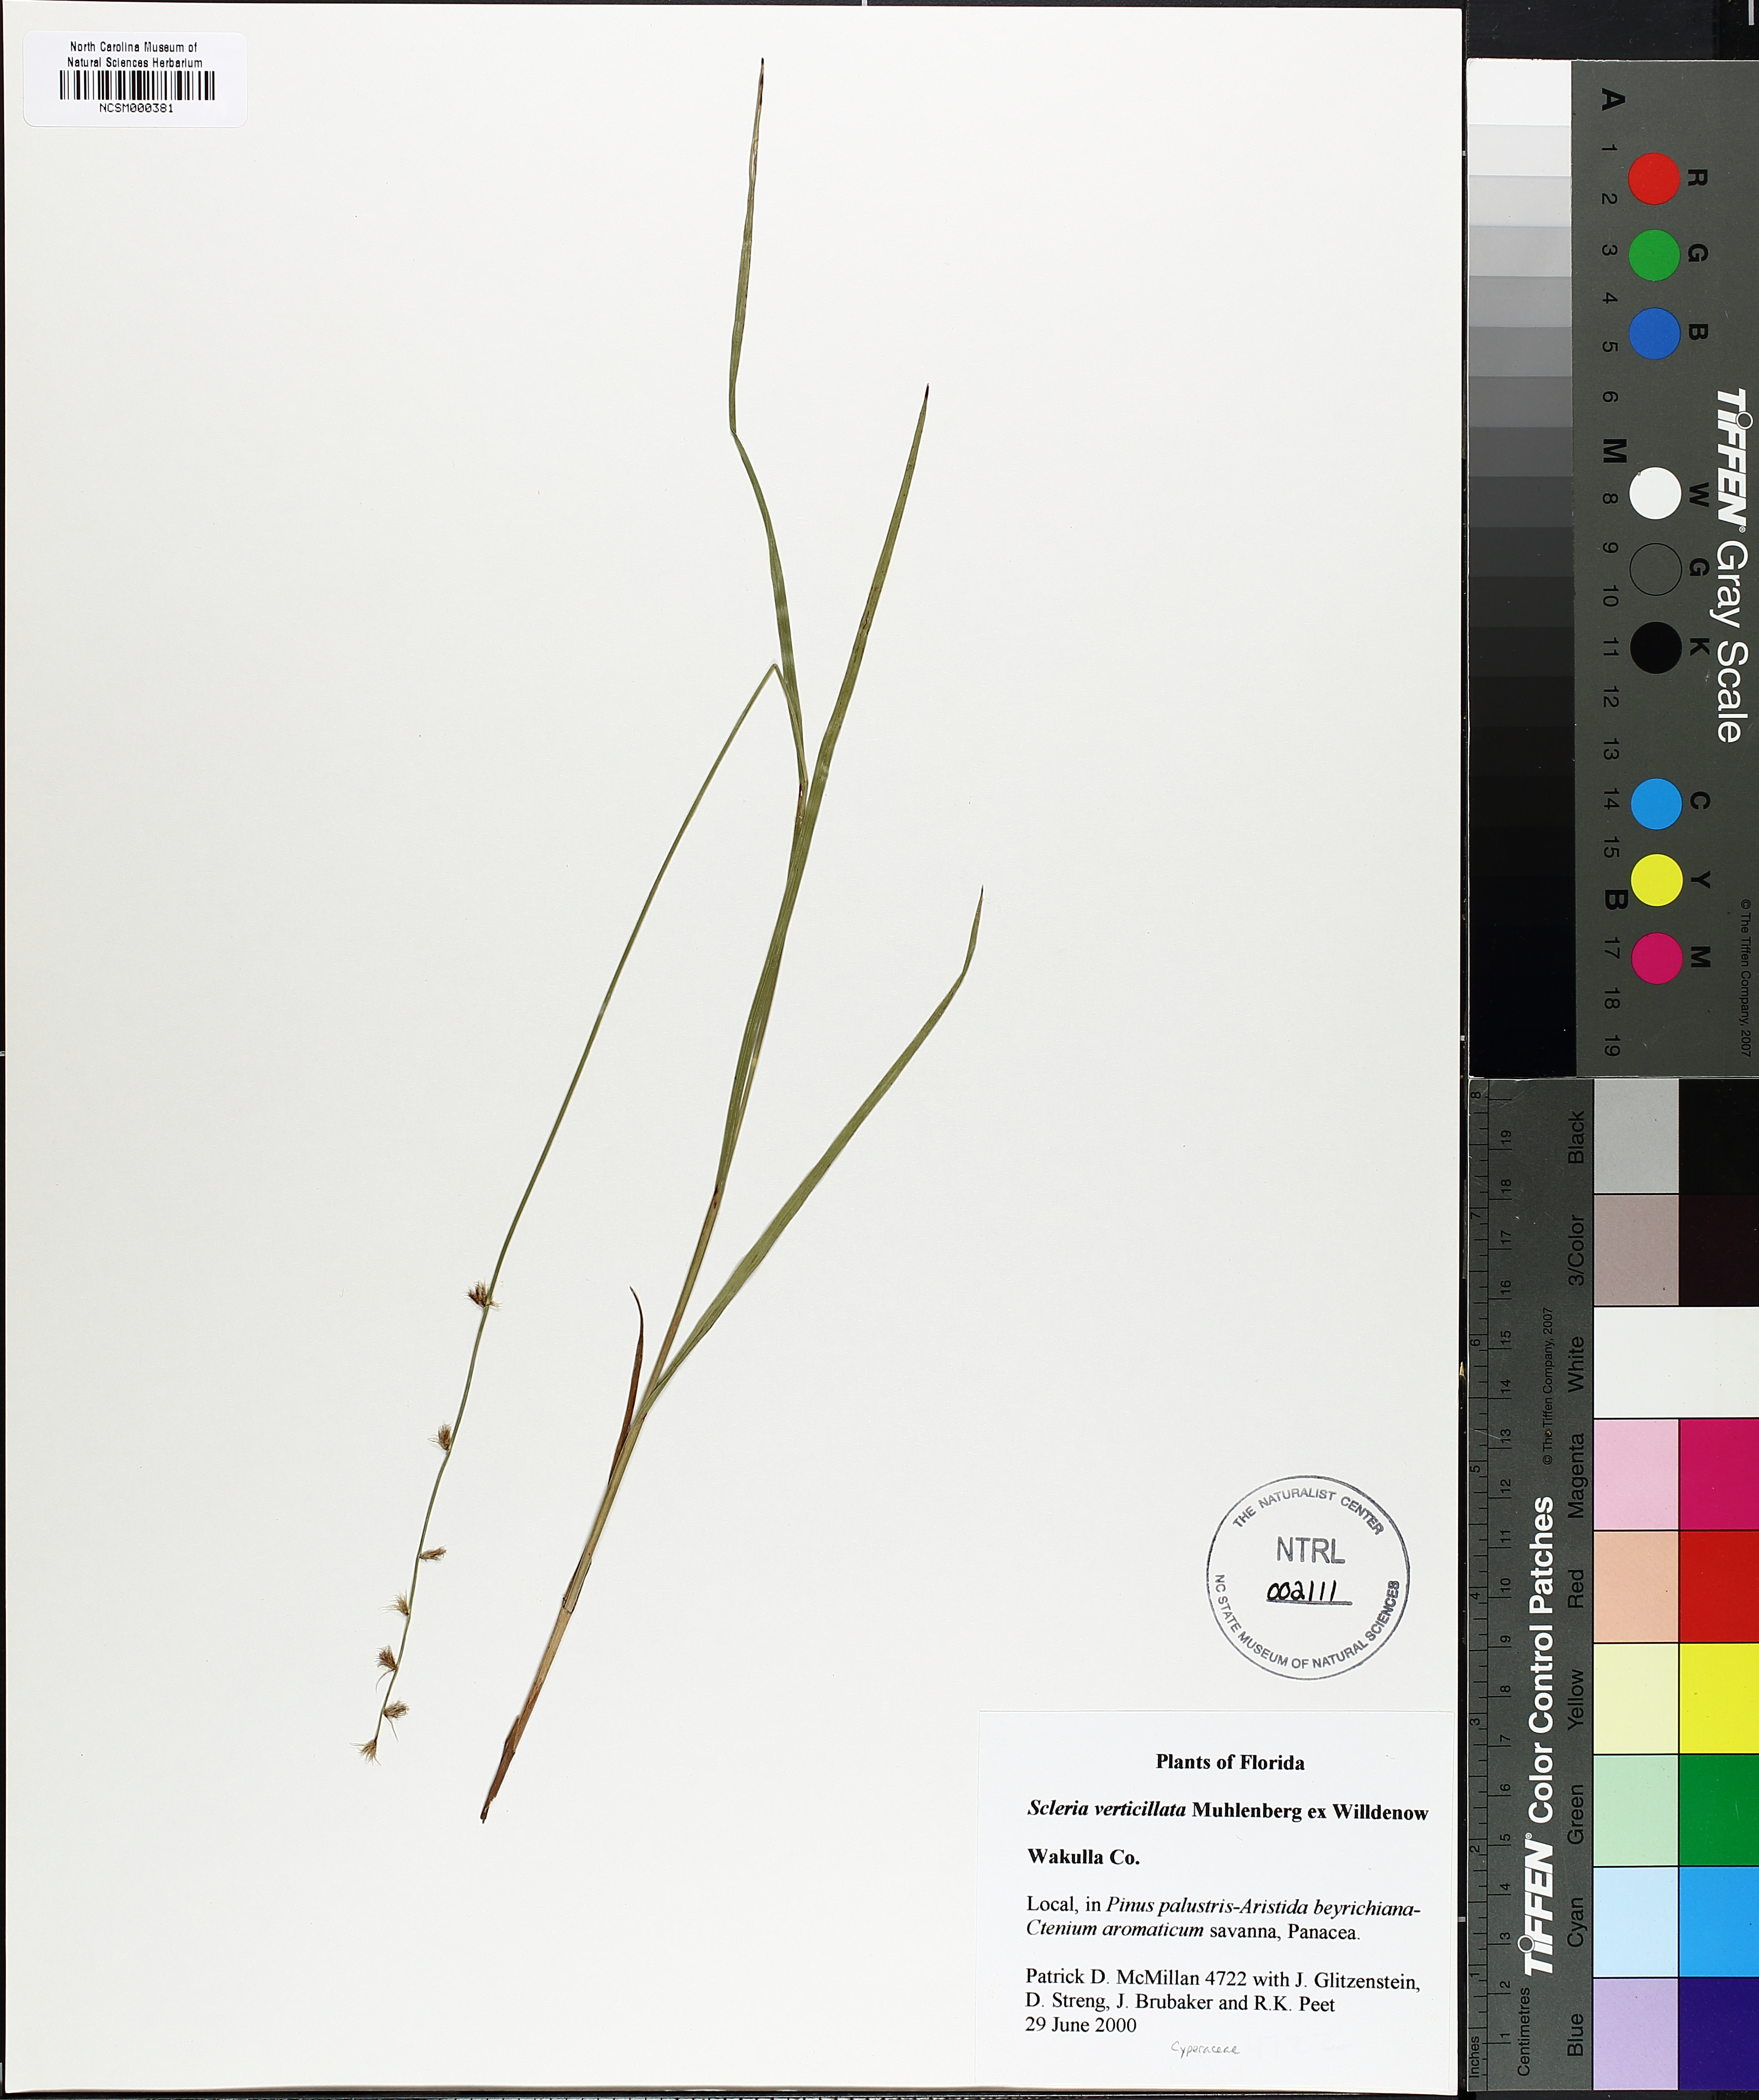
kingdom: Plantae
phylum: Tracheophyta
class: Liliopsida
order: Poales
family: Cyperaceae
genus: Scleria
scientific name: Scleria verticillata
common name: Low nutrush
